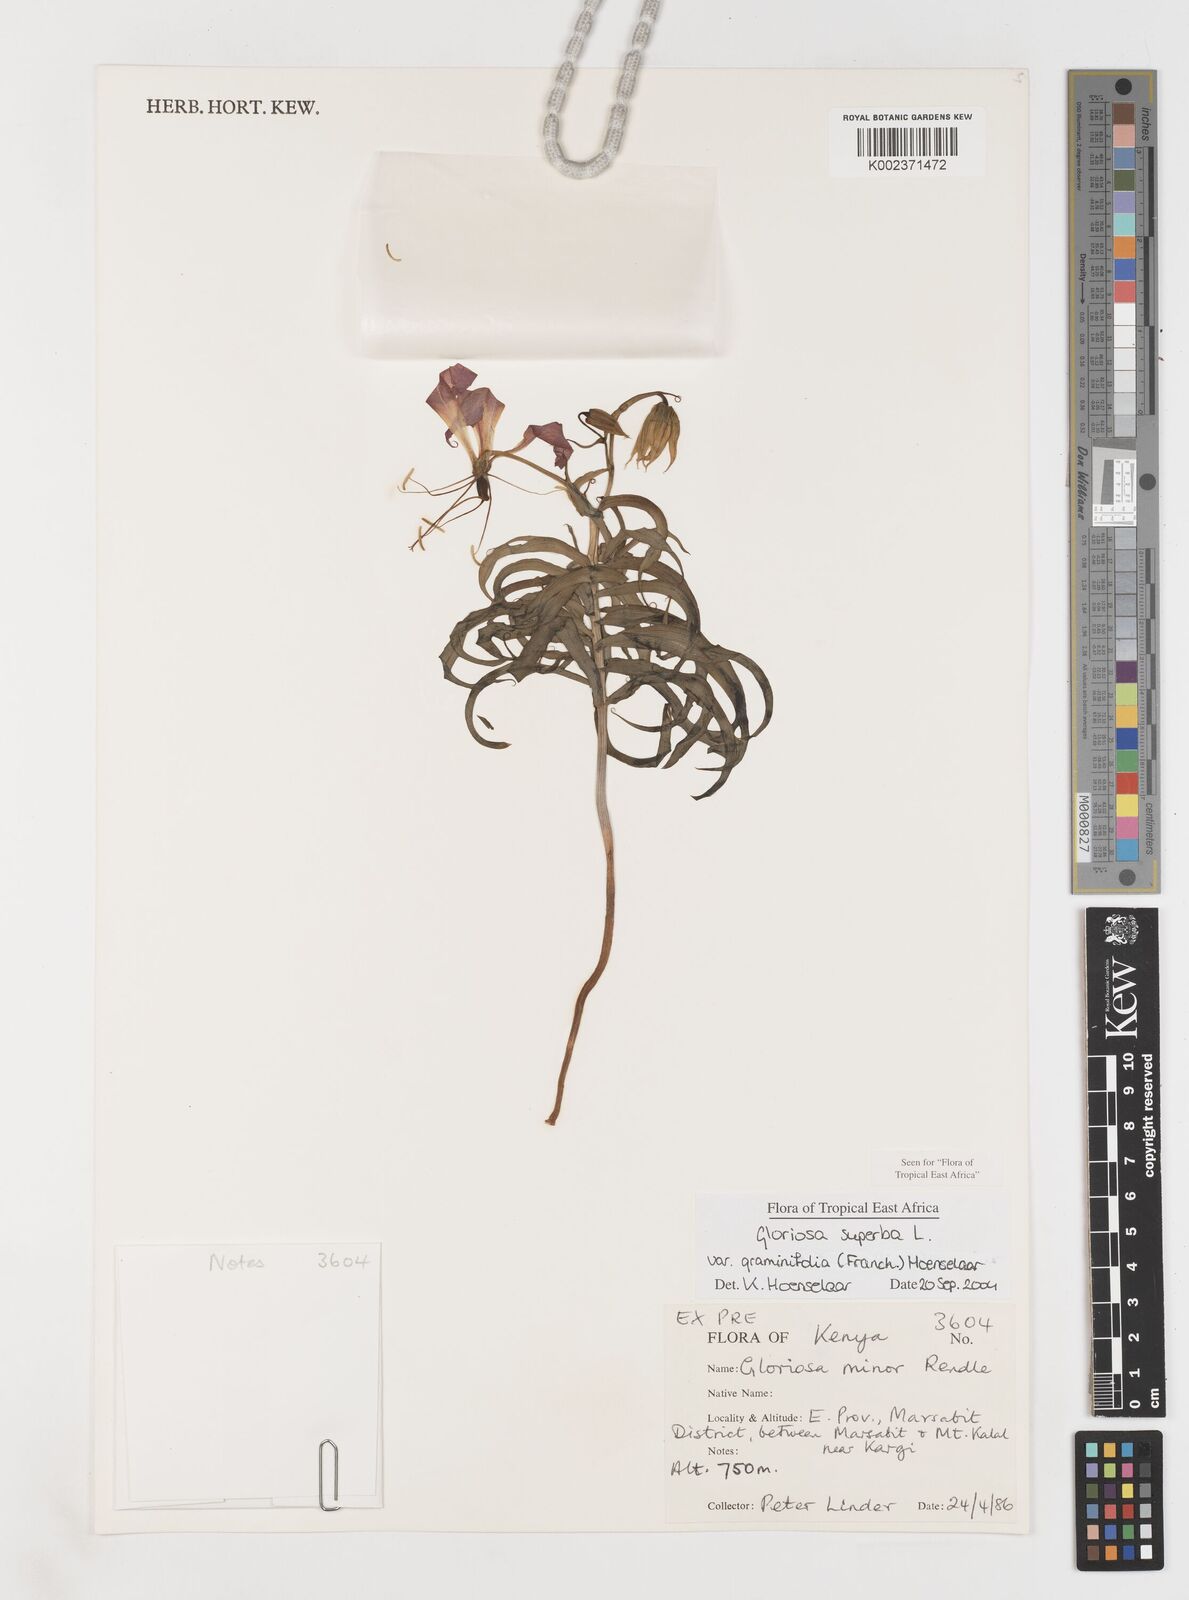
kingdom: Plantae
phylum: Tracheophyta
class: Liliopsida
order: Liliales
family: Colchicaceae
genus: Gloriosa
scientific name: Gloriosa baudii
